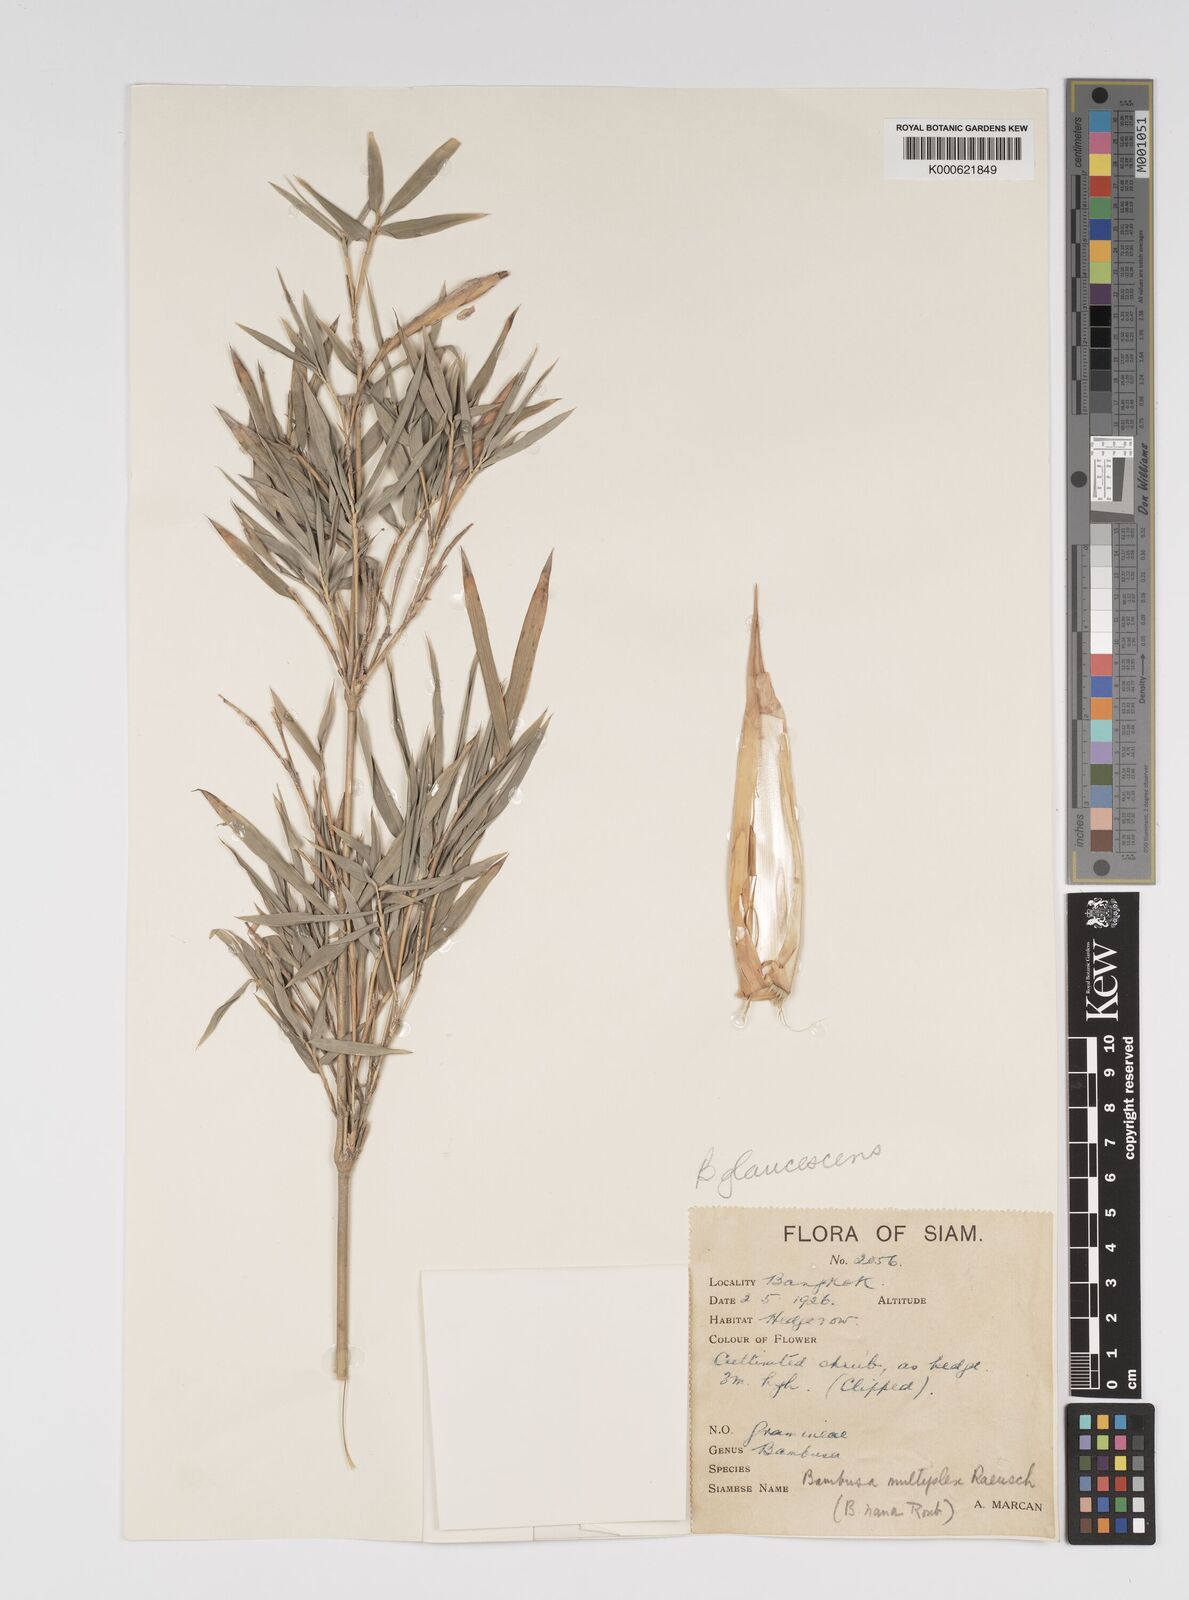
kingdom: Plantae
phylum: Tracheophyta
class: Liliopsida
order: Poales
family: Poaceae
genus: Bambusa
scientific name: Bambusa multiplex
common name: Hedge bamboo
